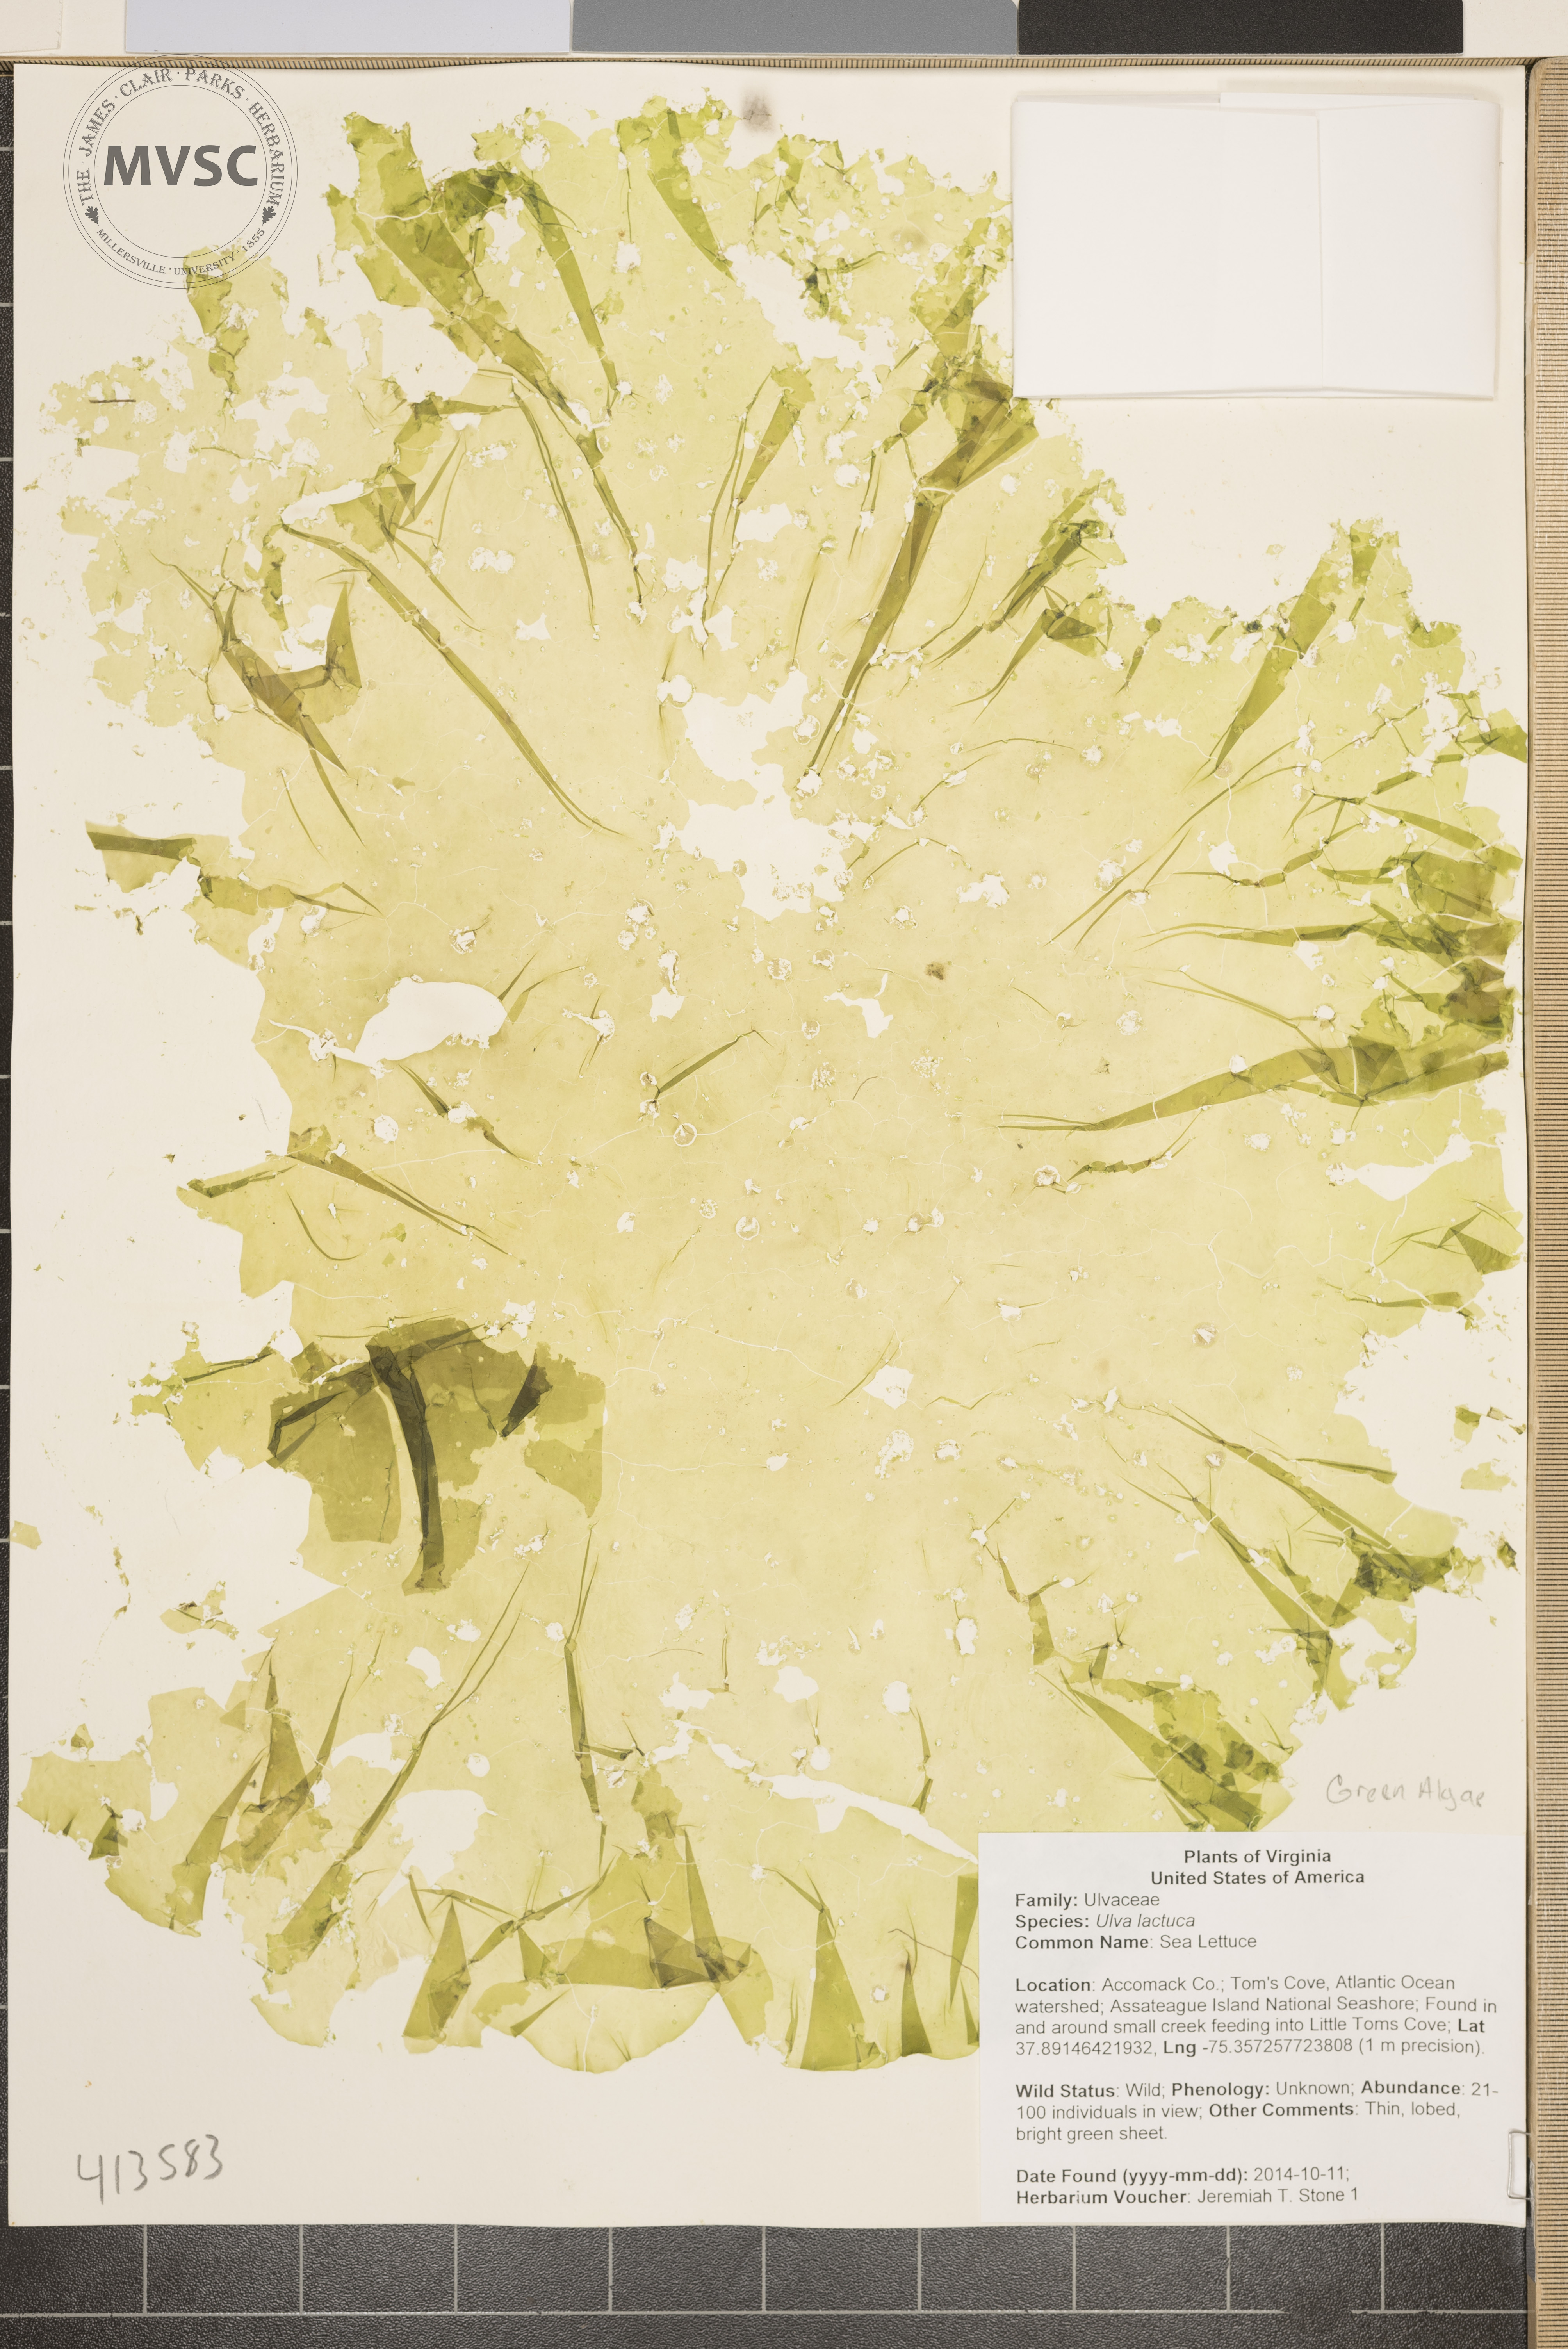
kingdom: Plantae
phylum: Chlorophyta
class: Ulvophyceae
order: Ulvales
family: Ulvaceae
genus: Ulva
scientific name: Ulva
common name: Sea Lettuce
